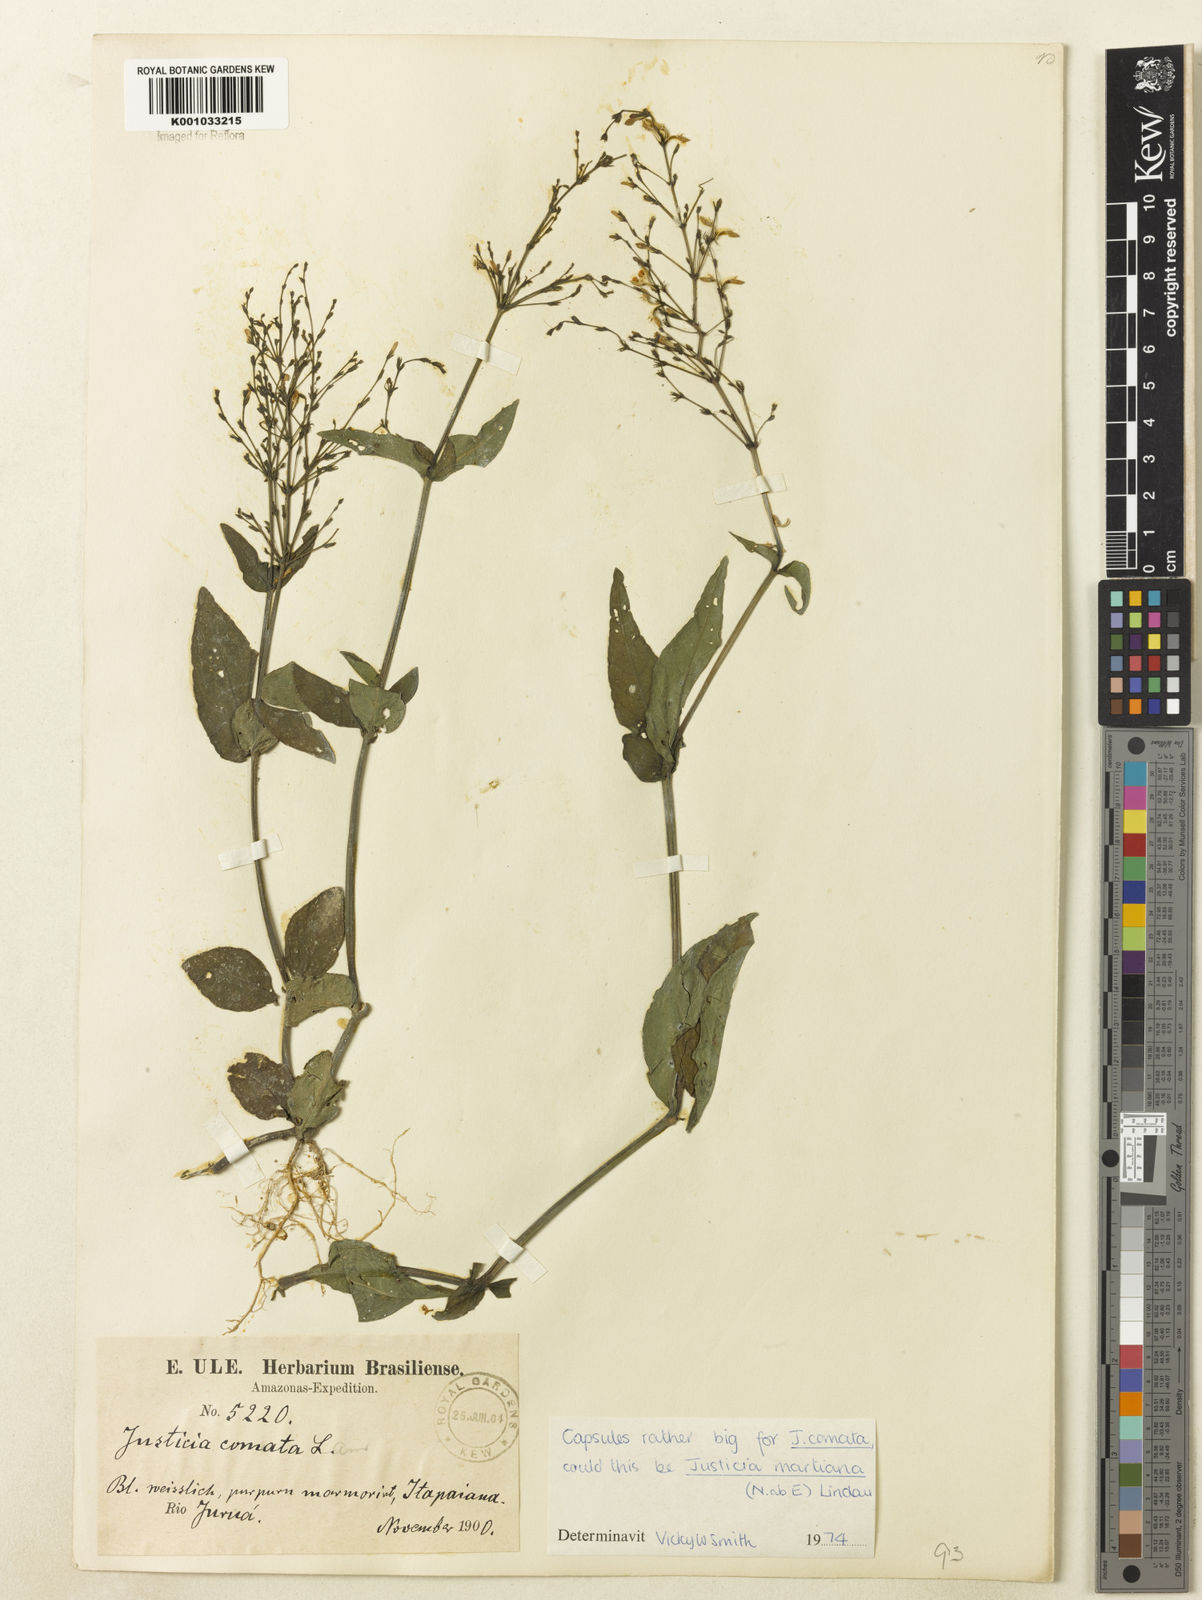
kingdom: Plantae
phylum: Tracheophyta
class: Magnoliopsida
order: Lamiales
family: Acanthaceae
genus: Dianthera
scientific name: Dianthera comata
